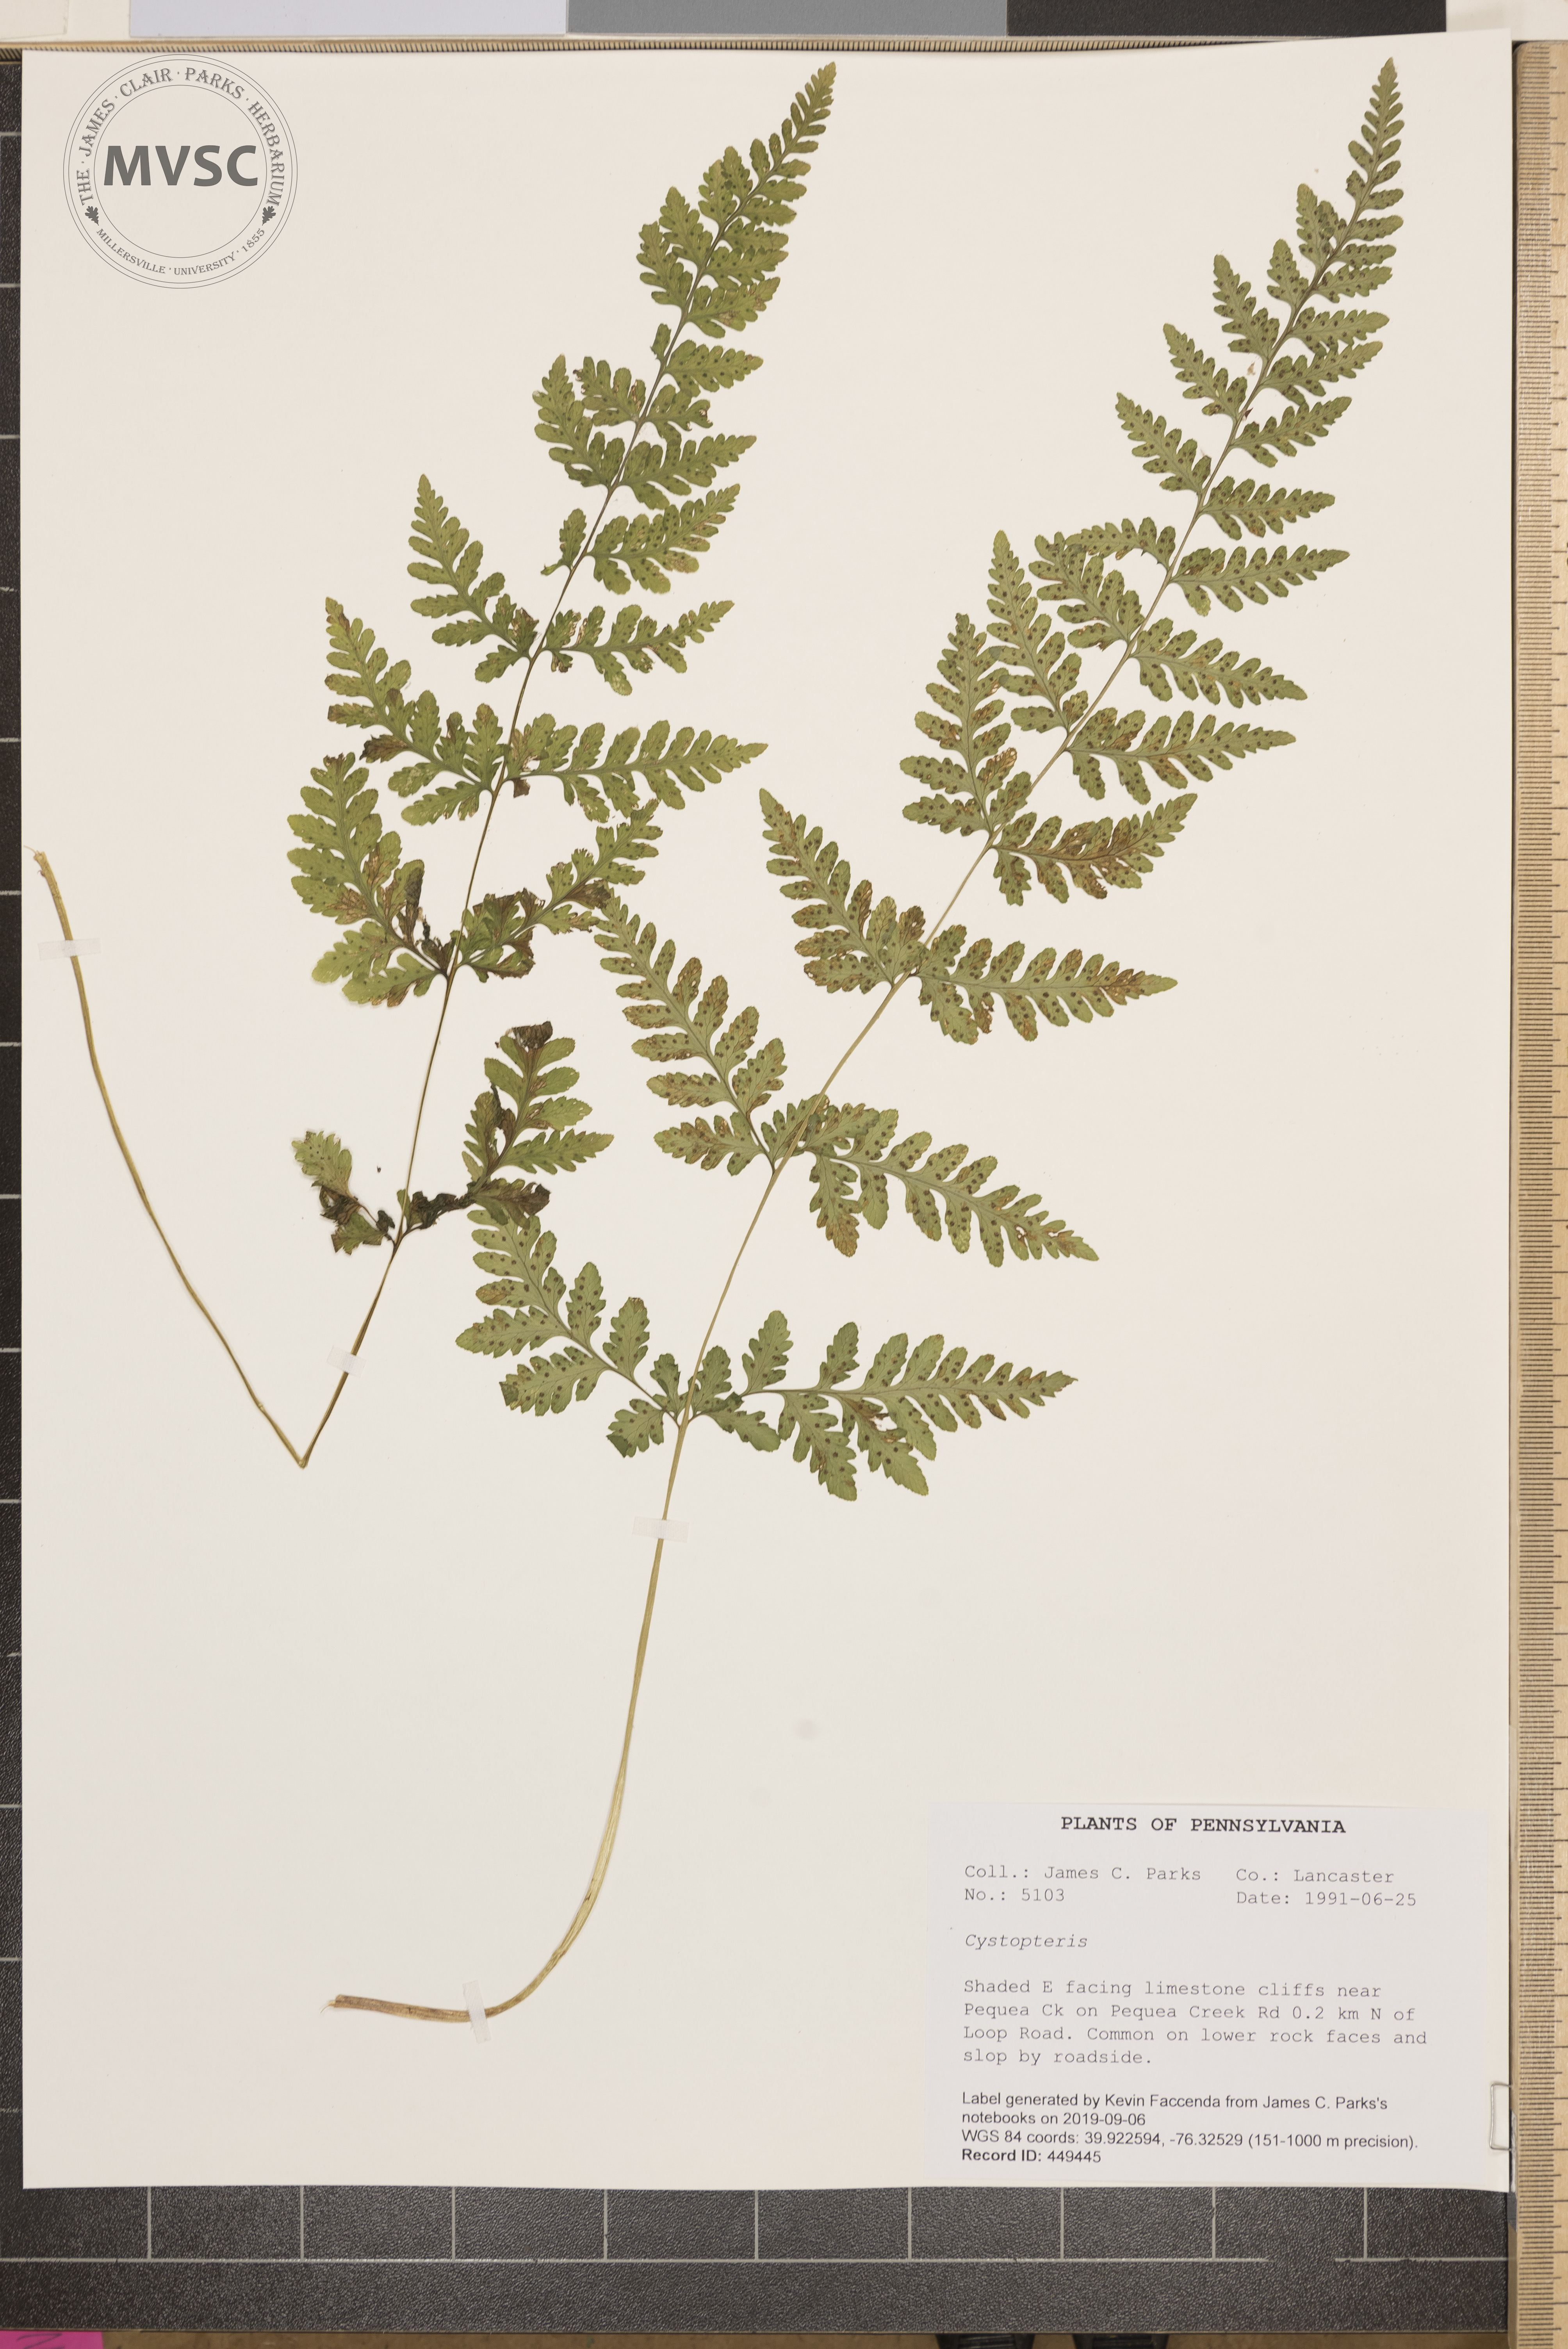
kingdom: Plantae
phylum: Tracheophyta
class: Polypodiopsida
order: Polypodiales
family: Cystopteridaceae
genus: Cystopteris
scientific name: Cystopteris
